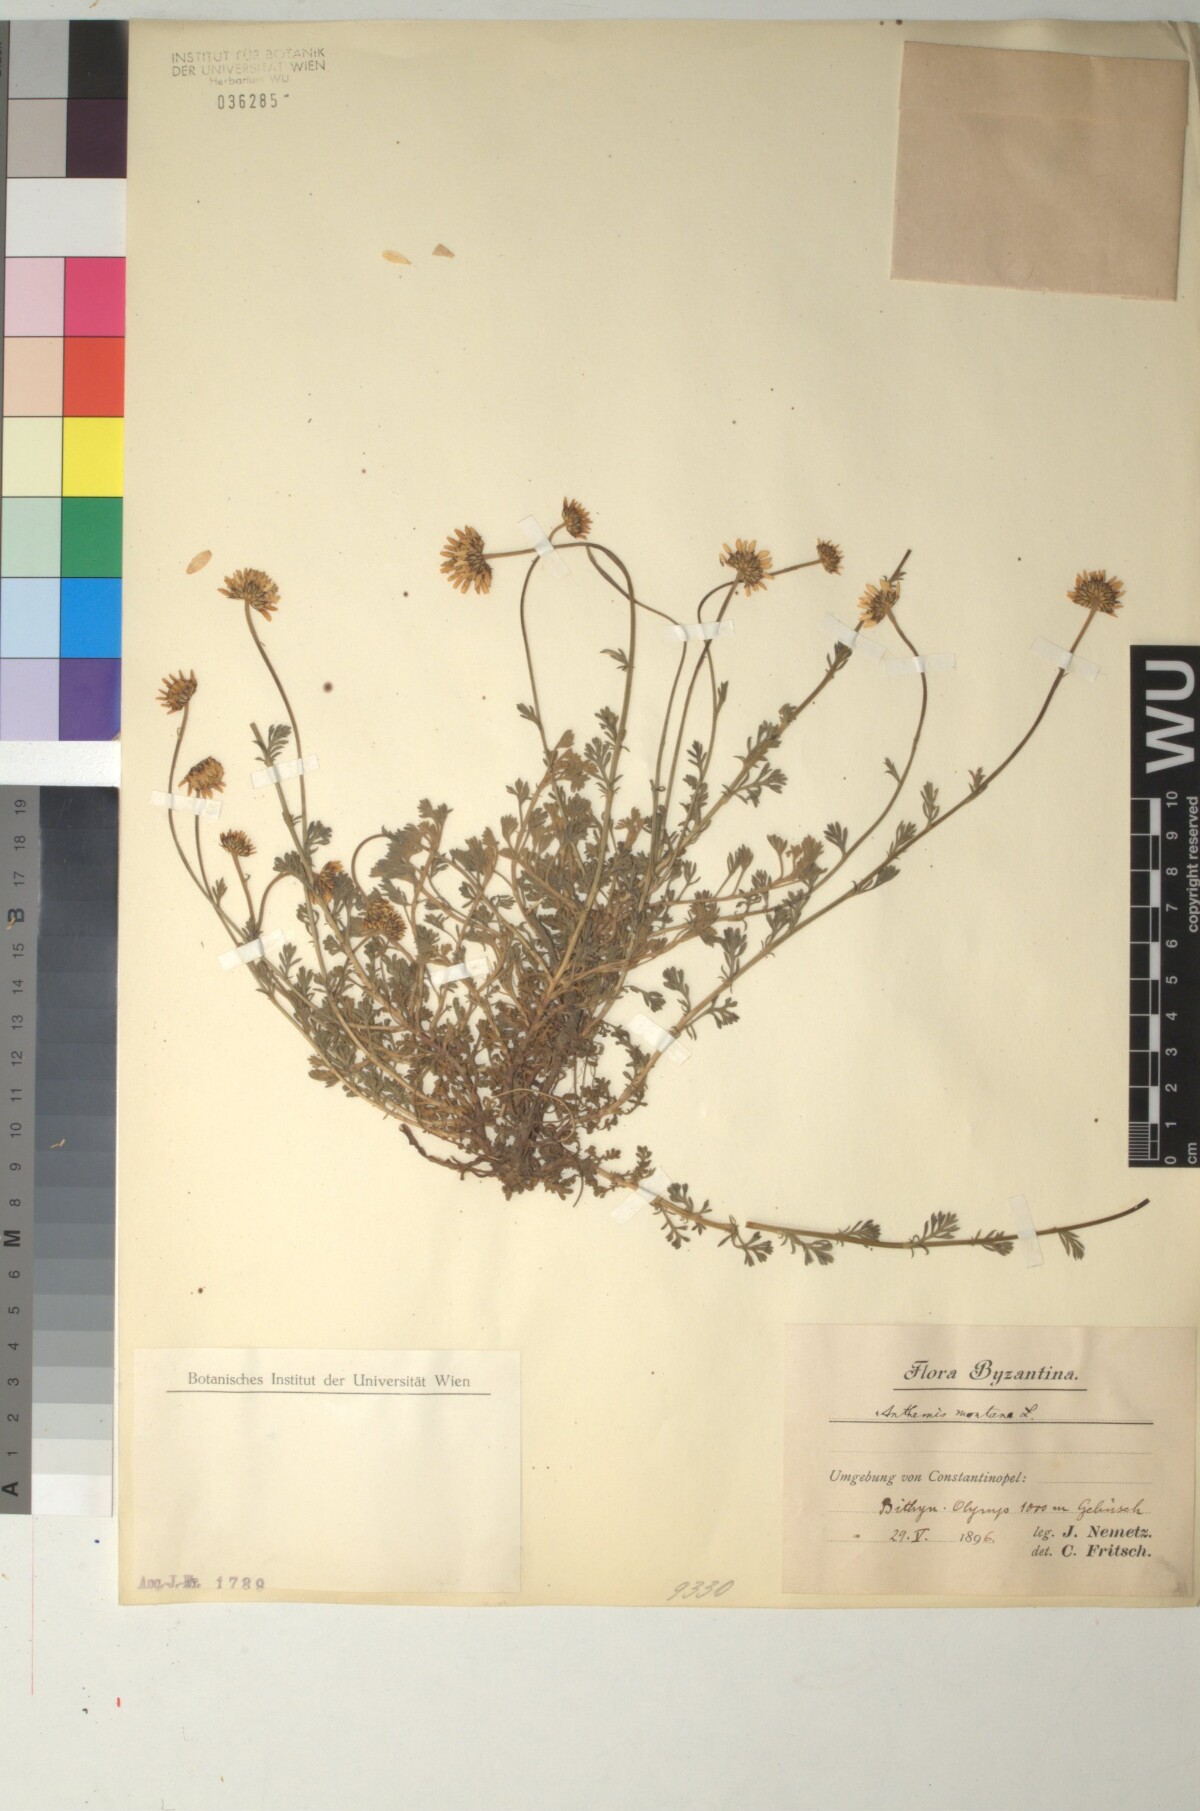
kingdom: Plantae
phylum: Tracheophyta
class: Magnoliopsida
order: Asterales
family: Asteraceae
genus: Anthemis
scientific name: Anthemis cretica
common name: Mountain dog-daisy
